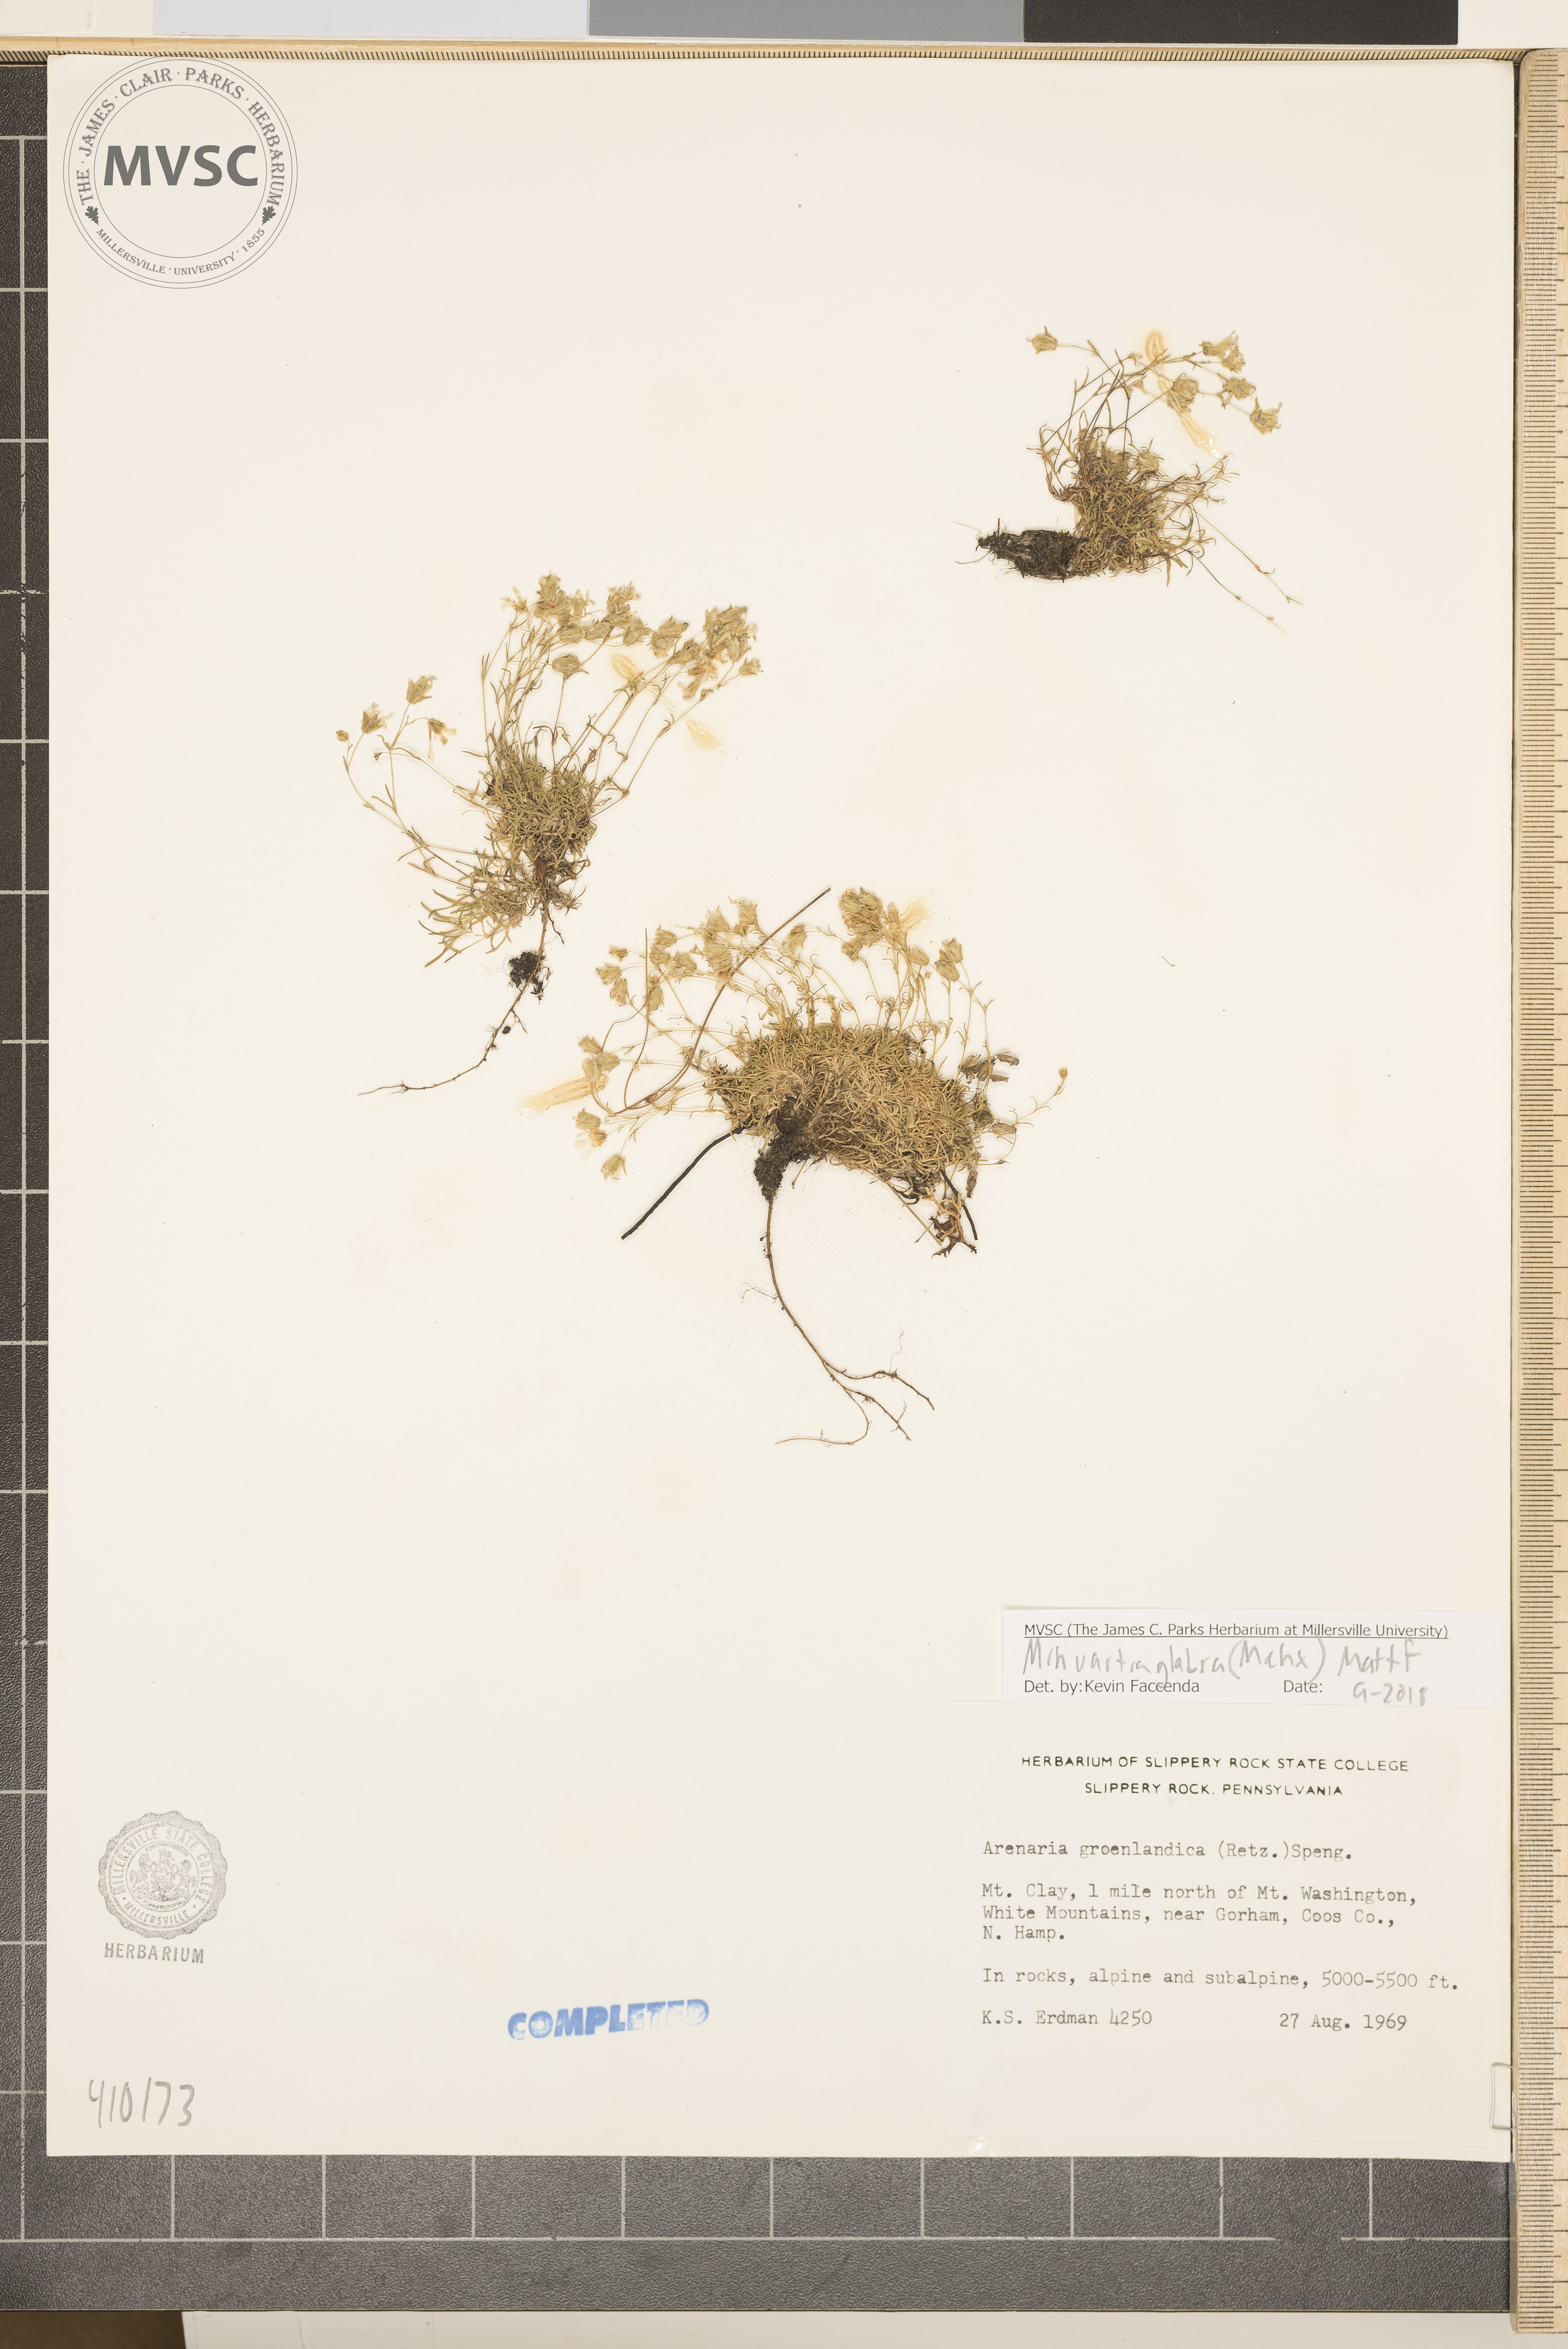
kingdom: Plantae
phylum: Tracheophyta
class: Magnoliopsida
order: Caryophyllales
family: Caryophyllaceae
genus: Geocarpon
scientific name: Geocarpon glabrum
